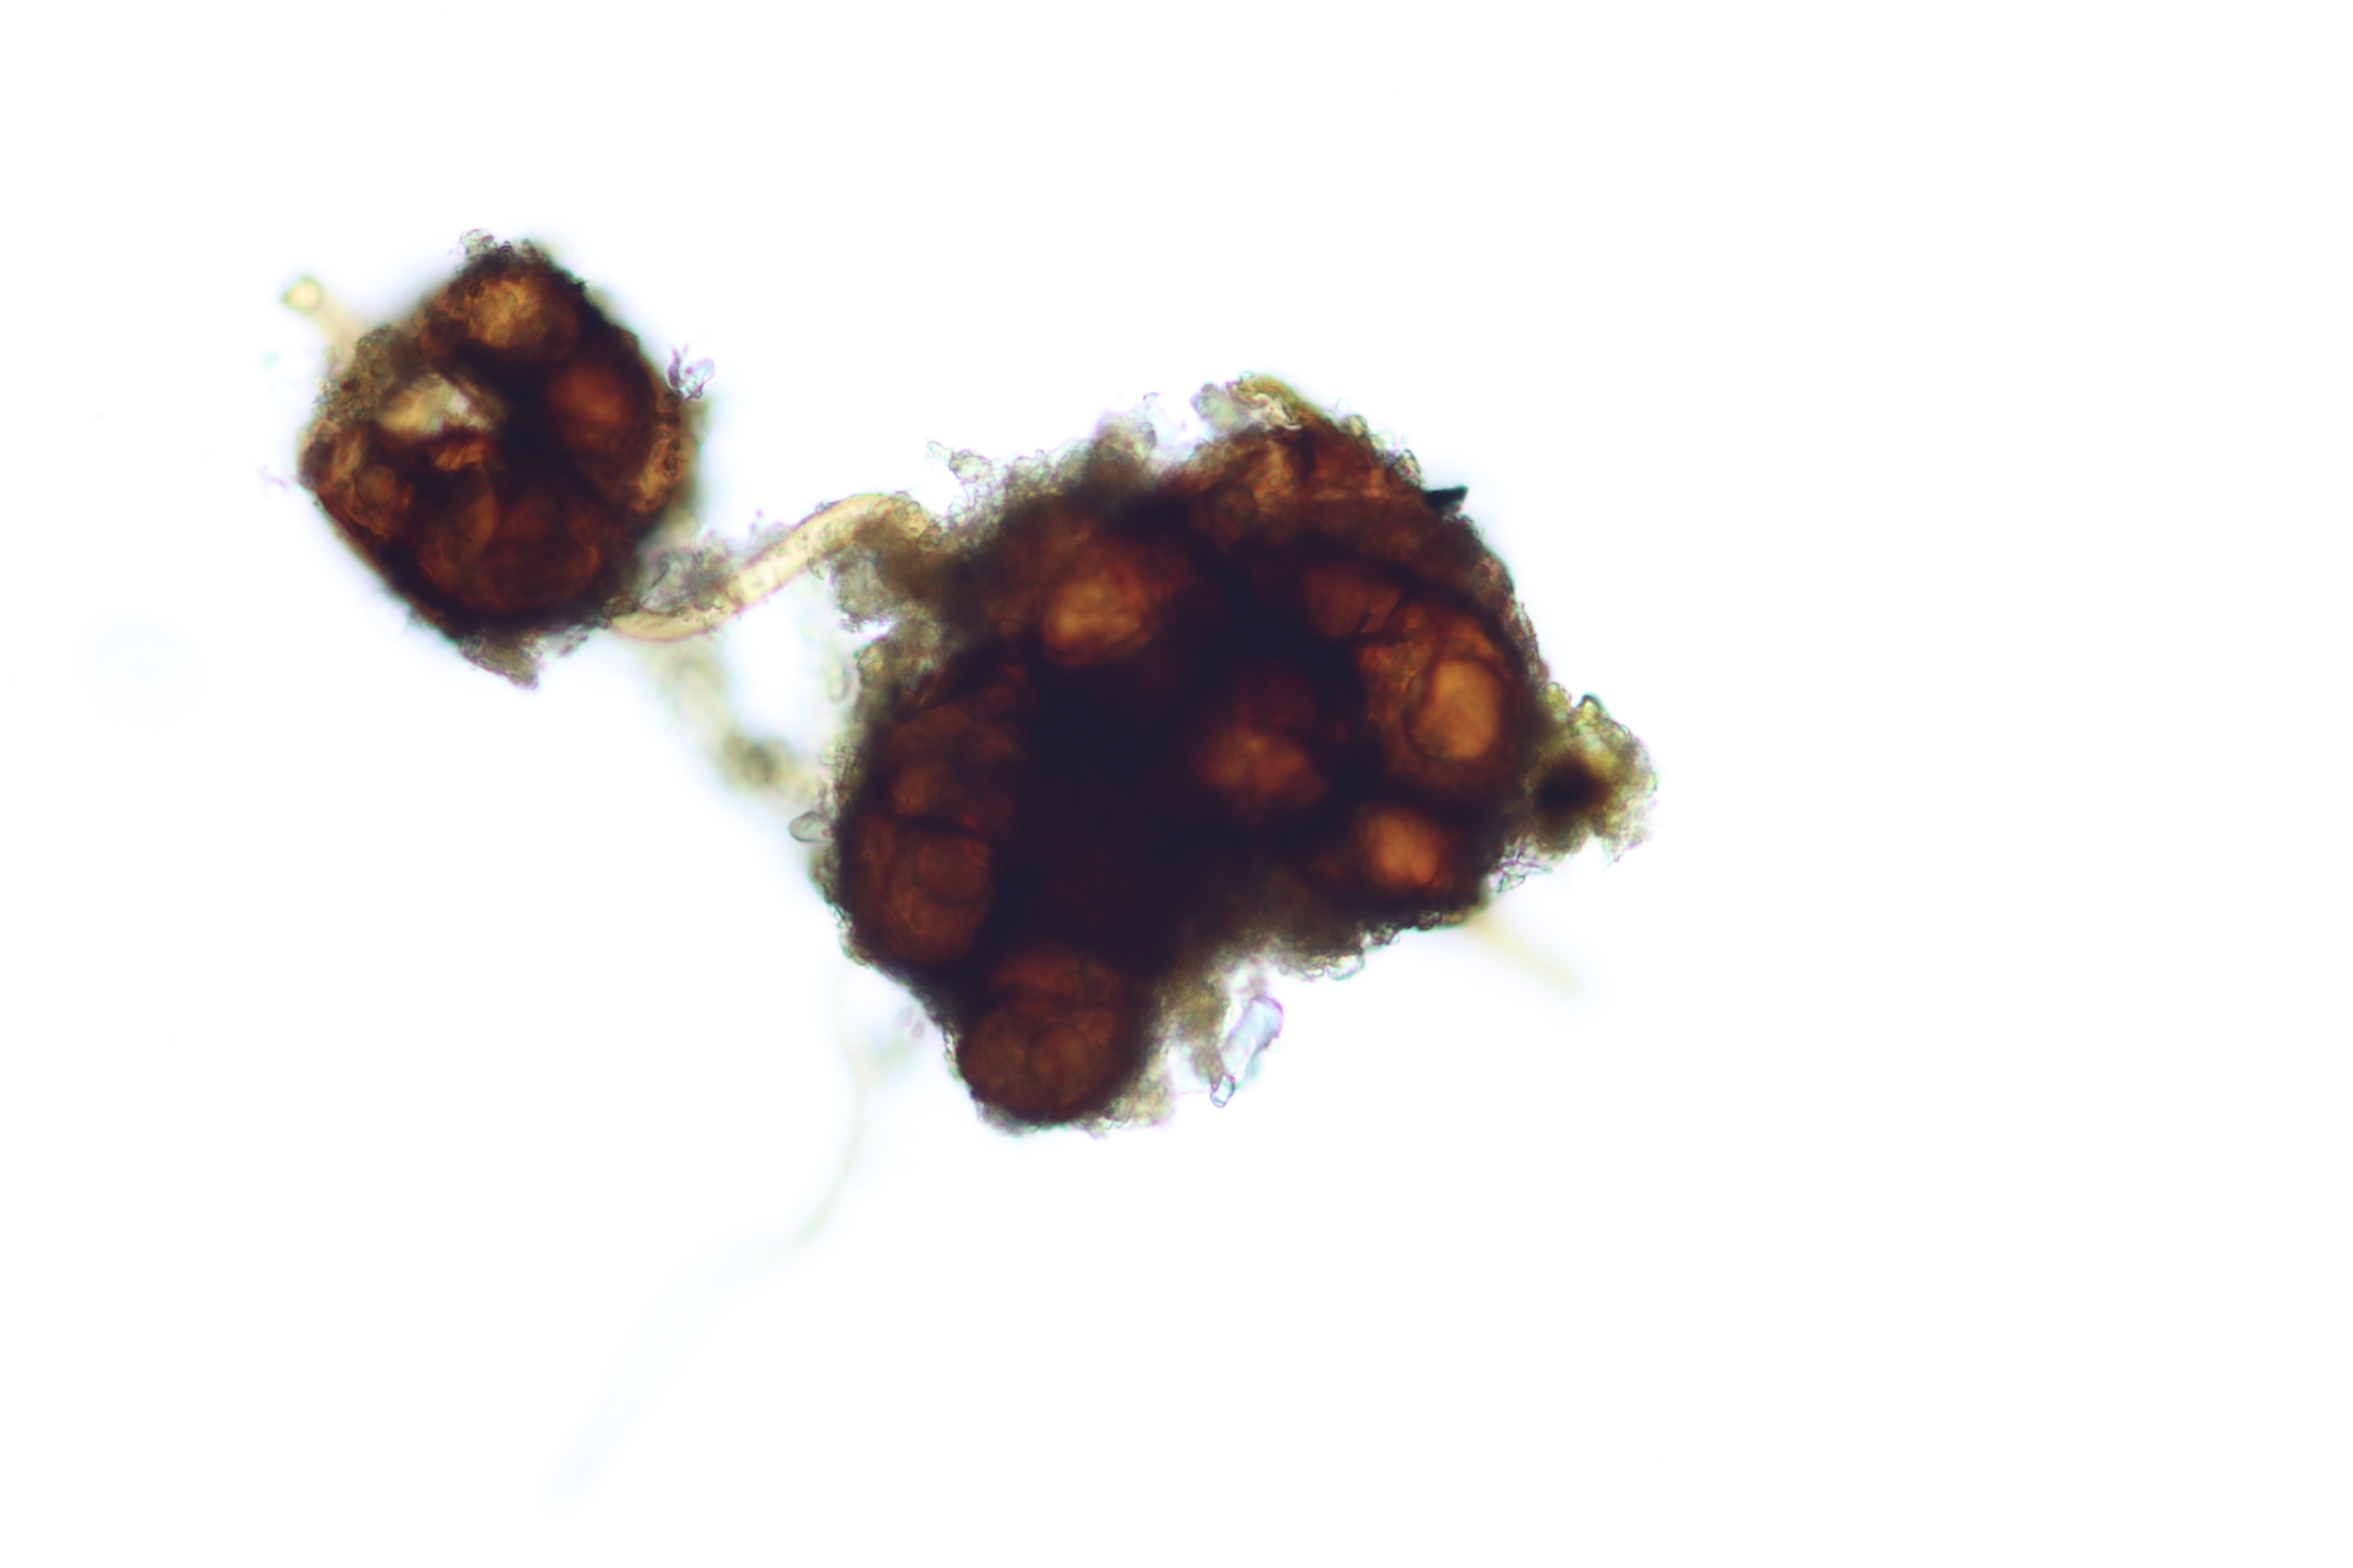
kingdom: Plantae
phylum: Bryophyta
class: Bryopsida
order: Dicranales
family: Dicranellaceae
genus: Dicranella
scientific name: Dicranella staphylina
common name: Rødknoldet skævkapsel
